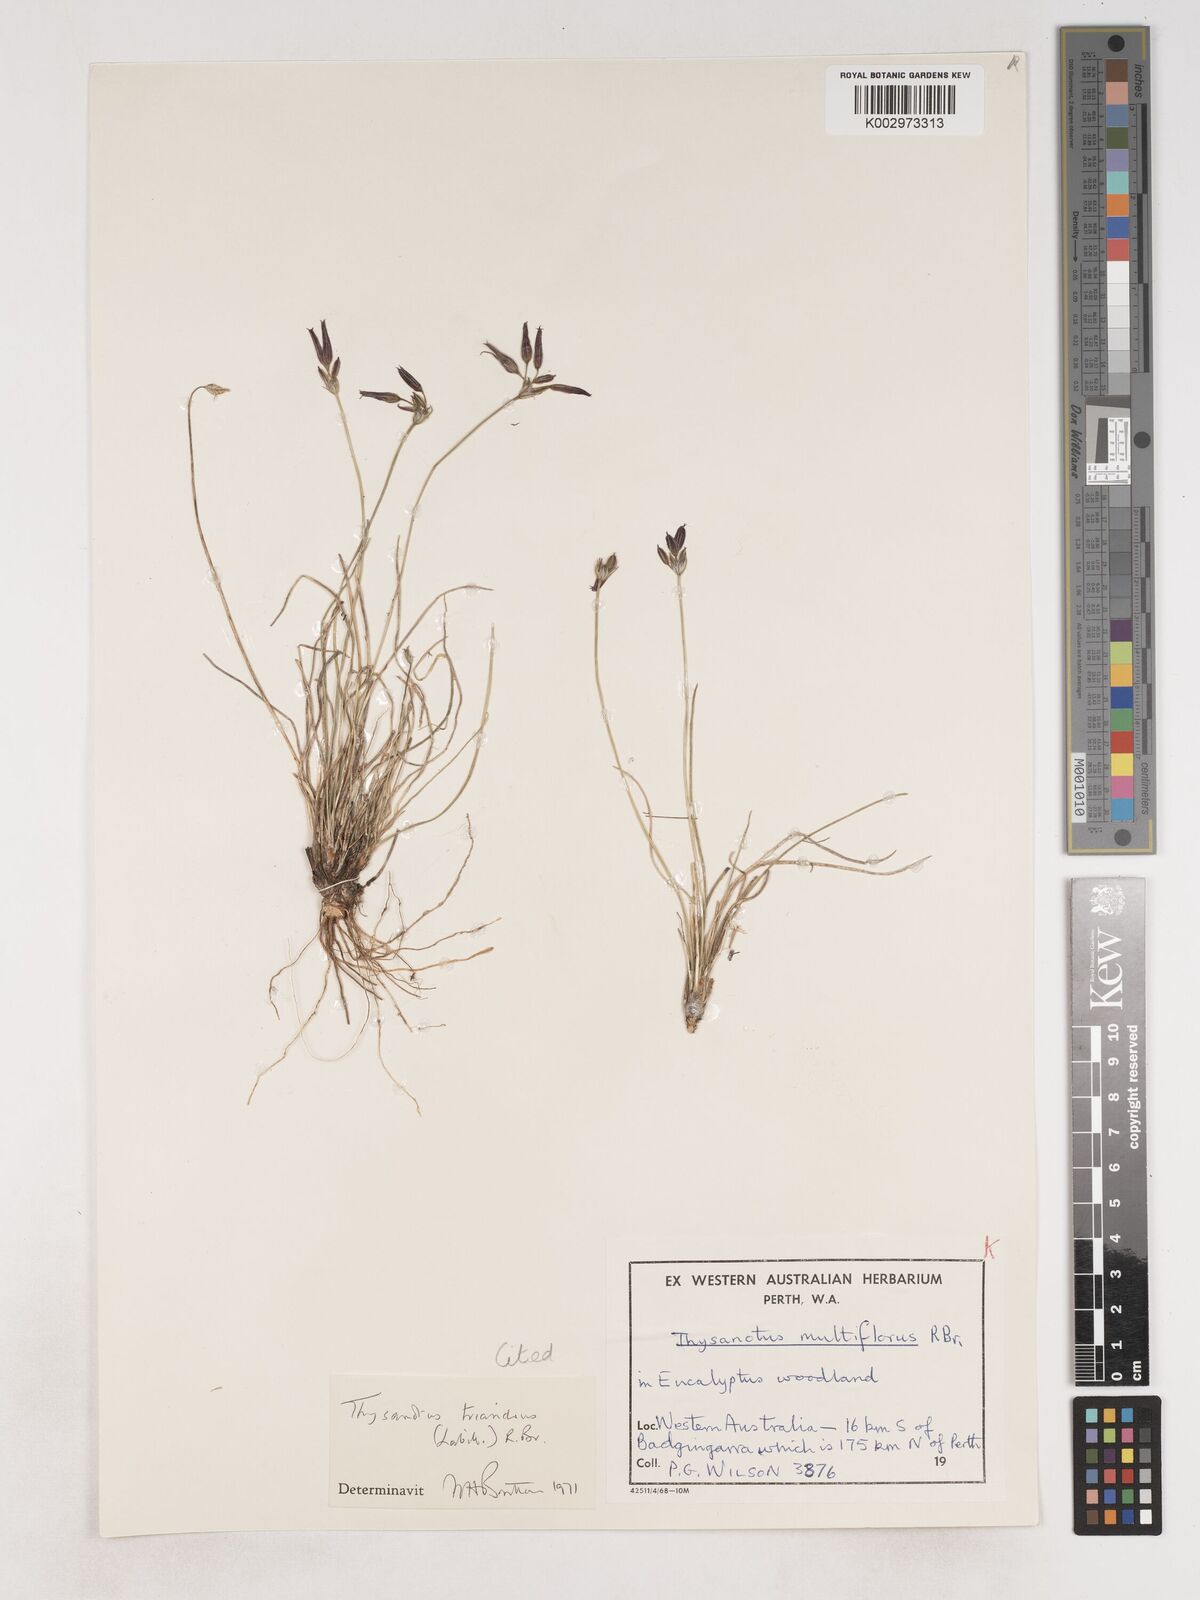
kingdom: Plantae
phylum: Tracheophyta
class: Liliopsida
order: Asparagales
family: Asparagaceae
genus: Thysanotus
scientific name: Thysanotus triandrus
